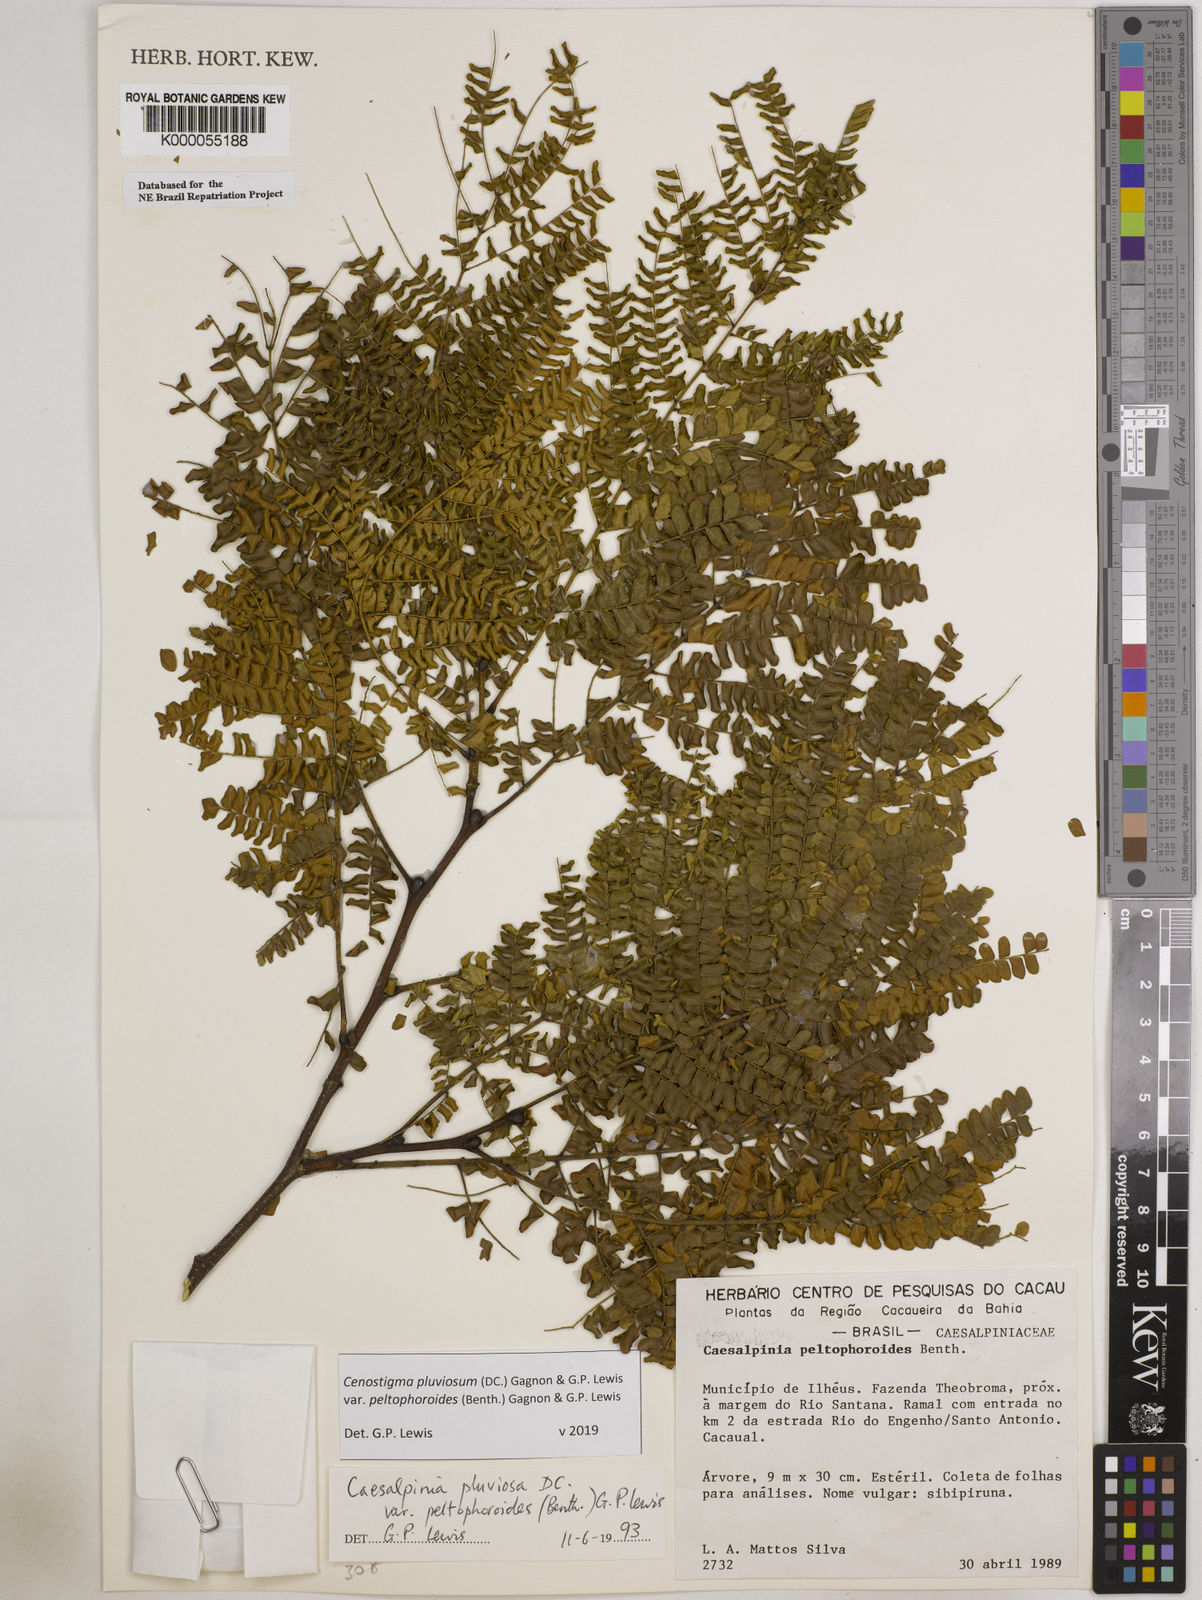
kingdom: Plantae
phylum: Tracheophyta
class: Magnoliopsida
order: Fabales
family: Fabaceae
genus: Cenostigma
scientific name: Cenostigma pluviosum
